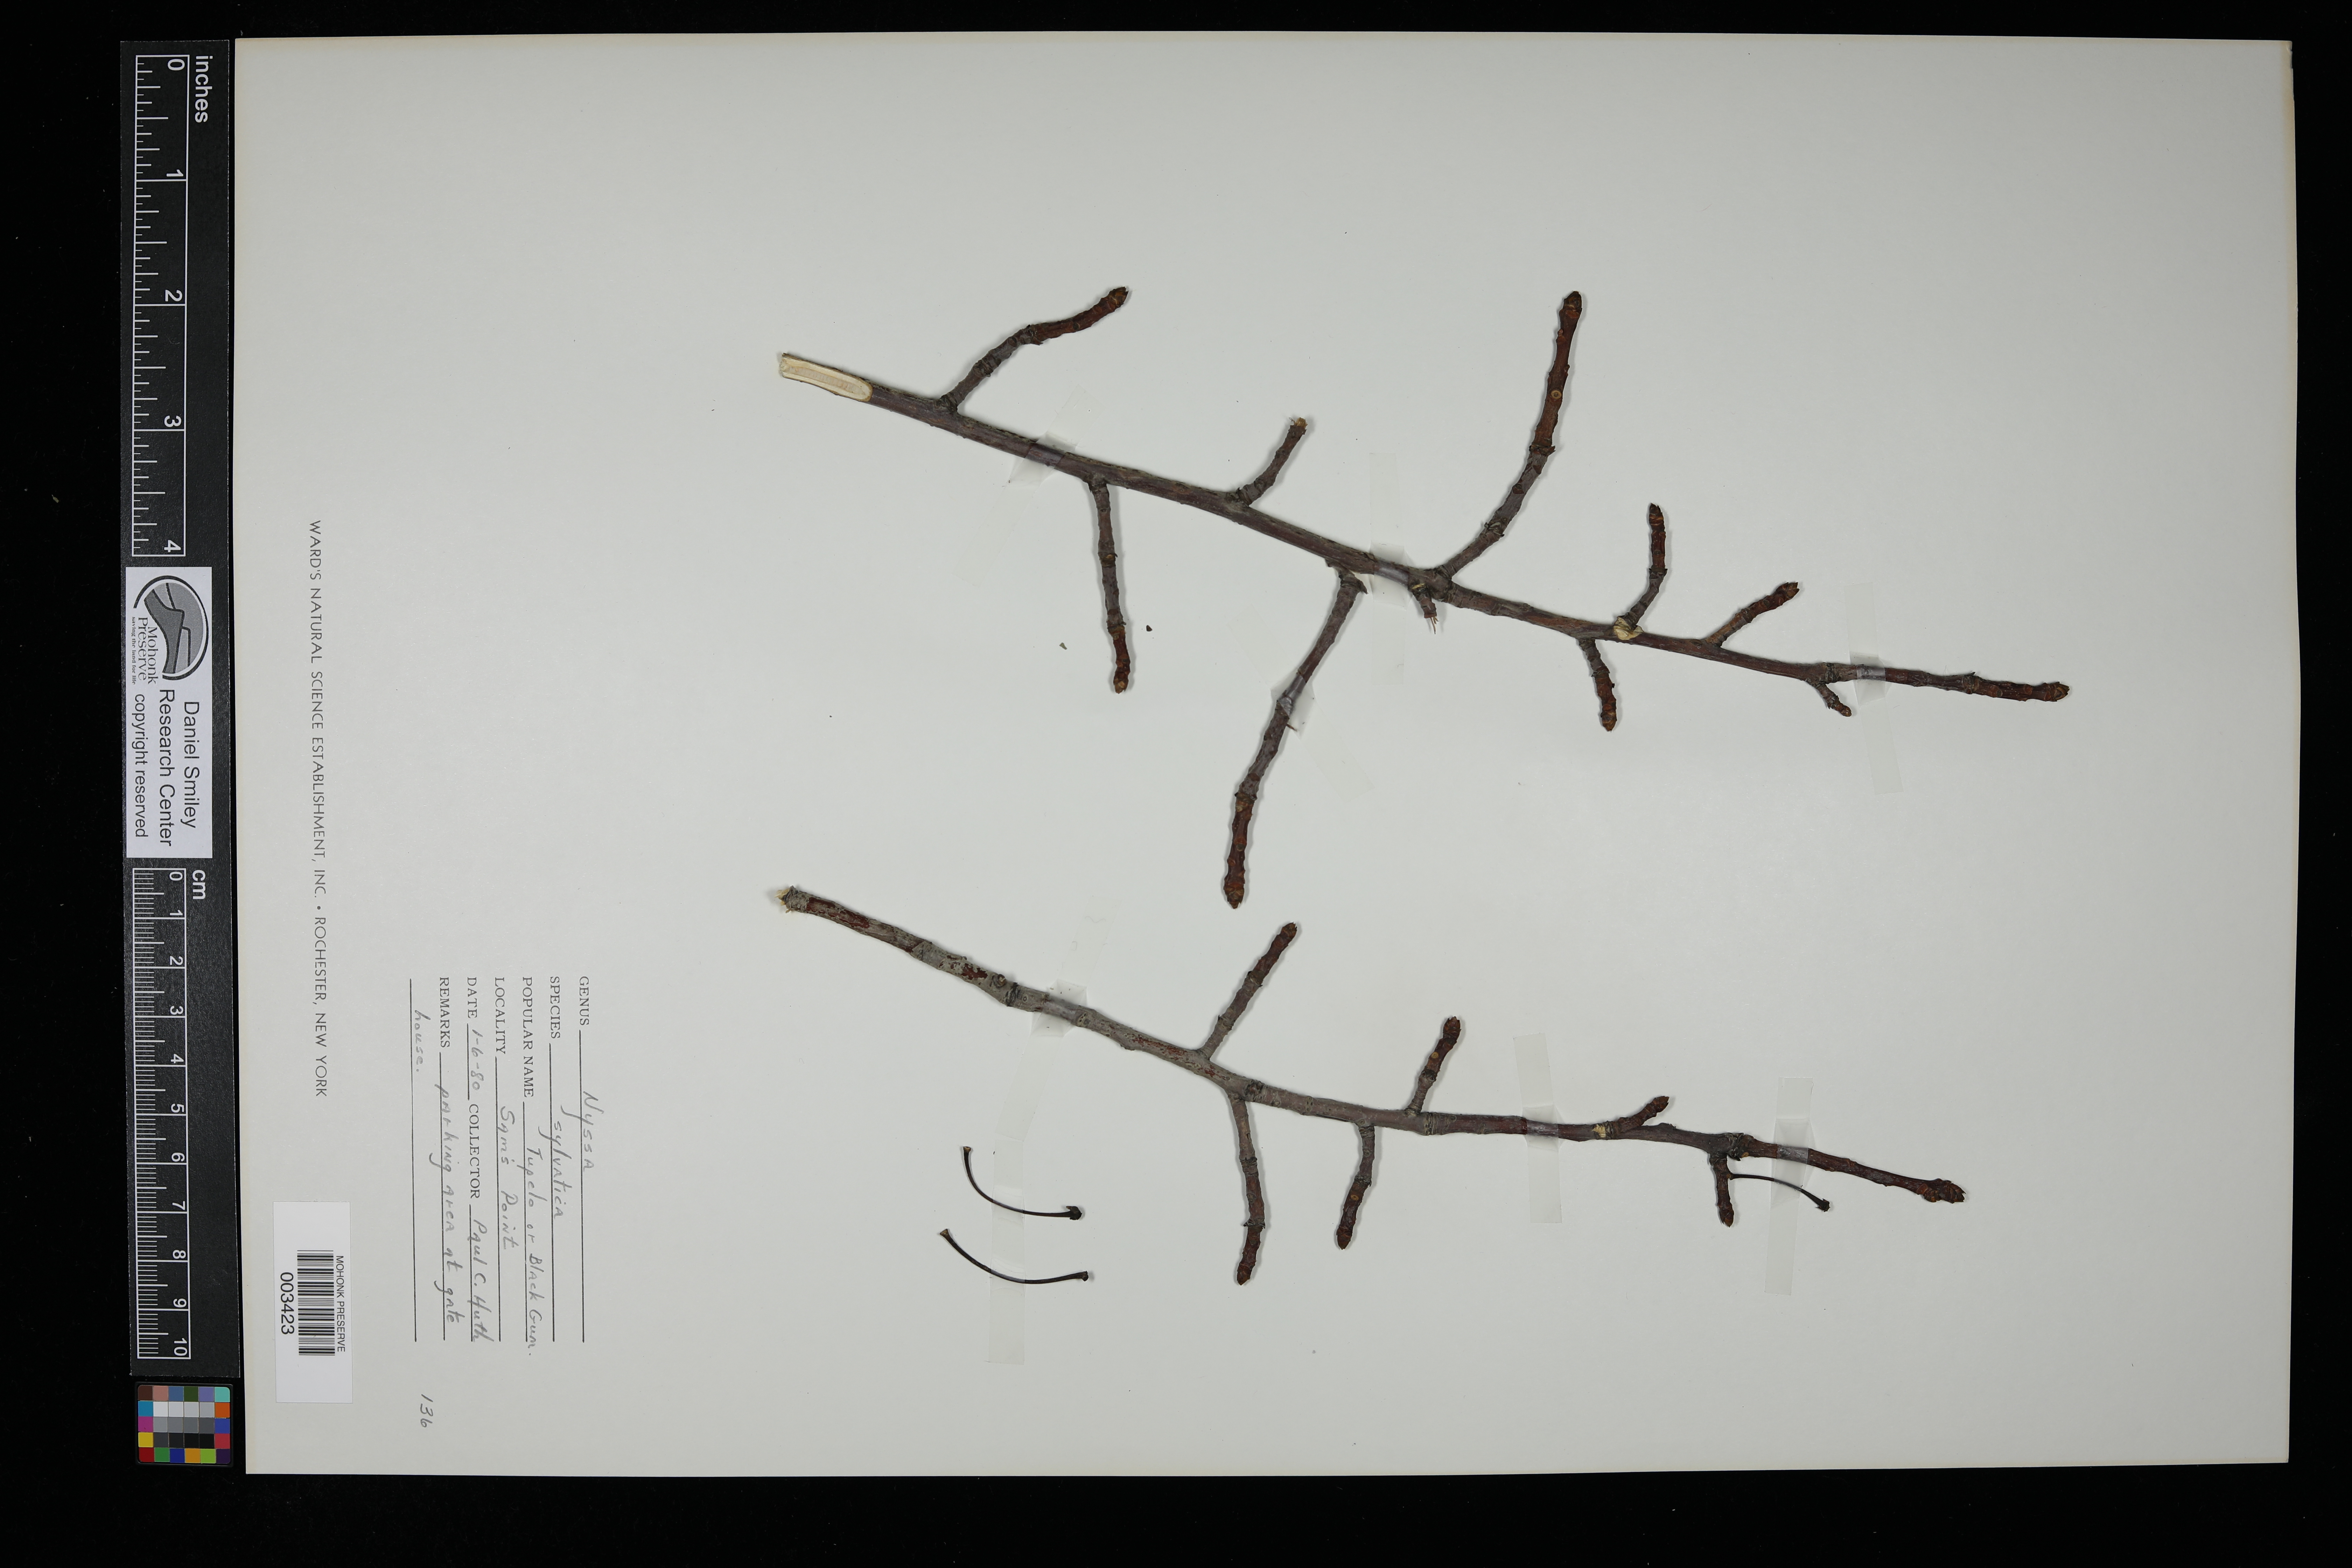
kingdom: Plantae
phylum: Tracheophyta
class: Magnoliopsida
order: Cornales
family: Nyssaceae
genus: Nyssa
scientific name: Nyssa sylvatica
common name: Black tupelo
